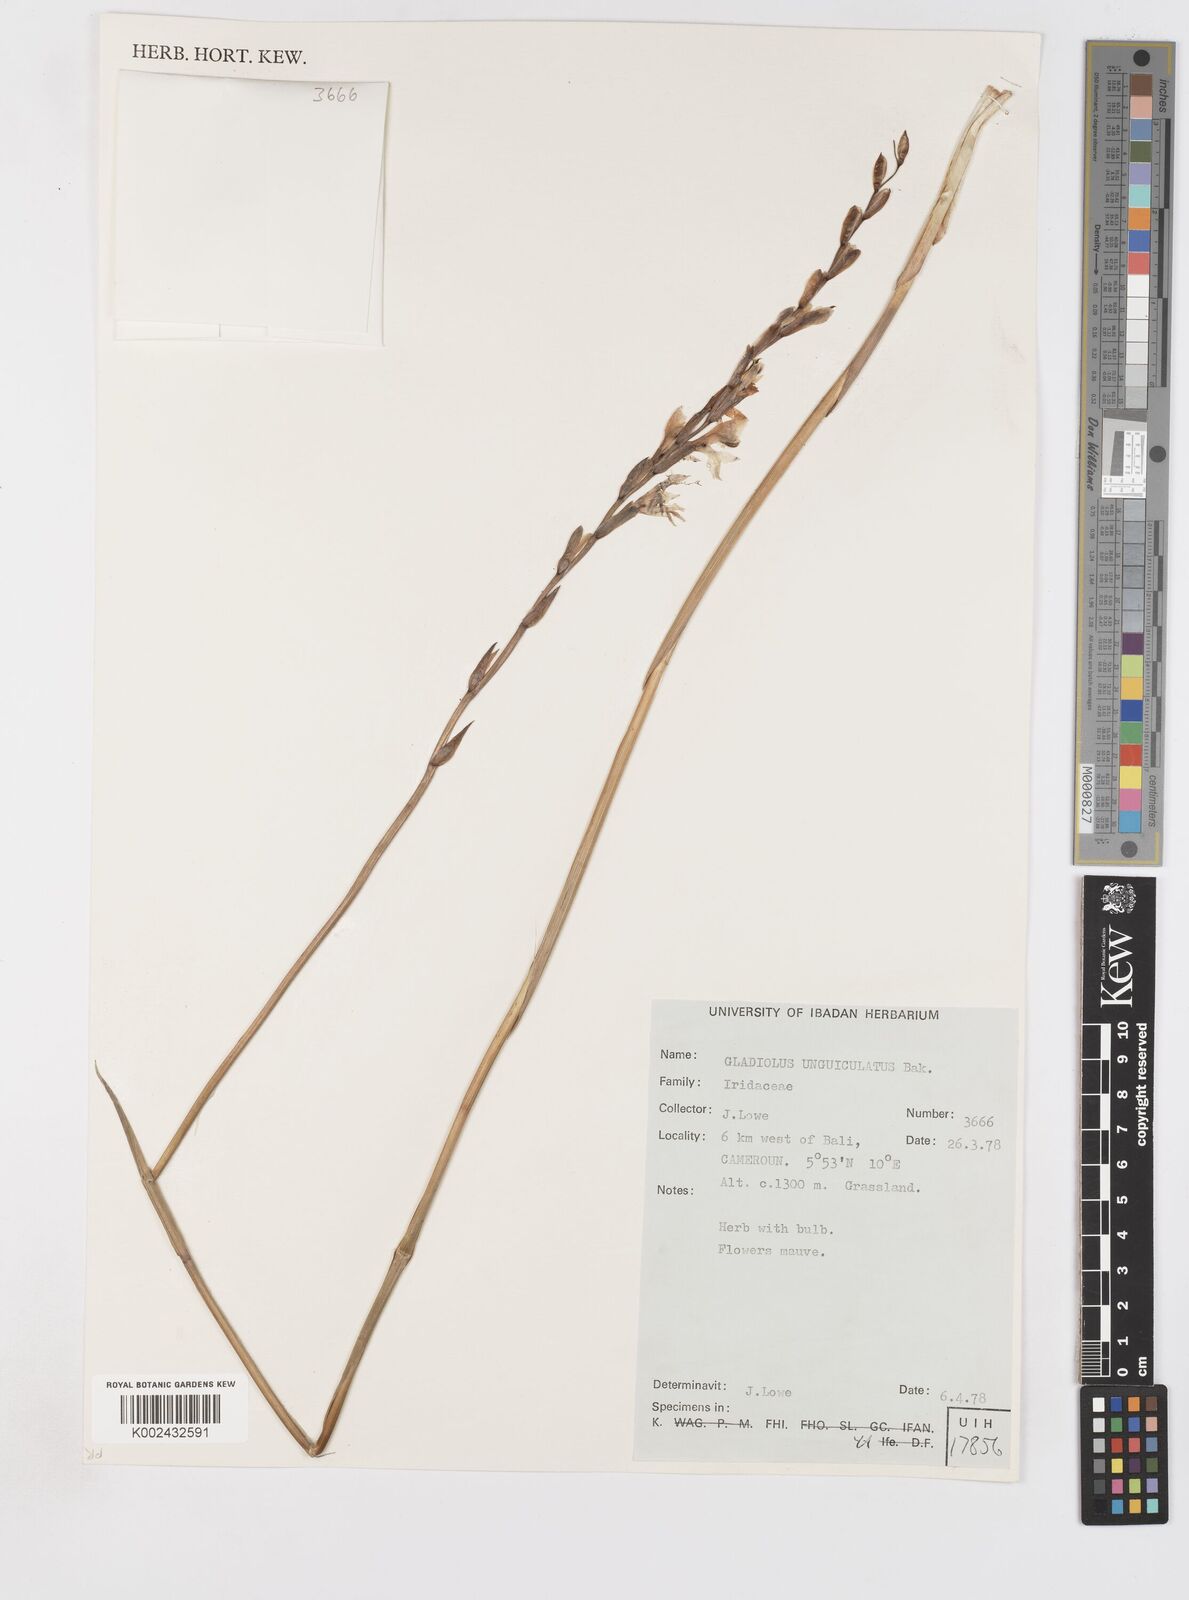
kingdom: Plantae
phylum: Tracheophyta
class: Liliopsida
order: Asparagales
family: Iridaceae
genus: Gladiolus
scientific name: Gladiolus unguiculatus
